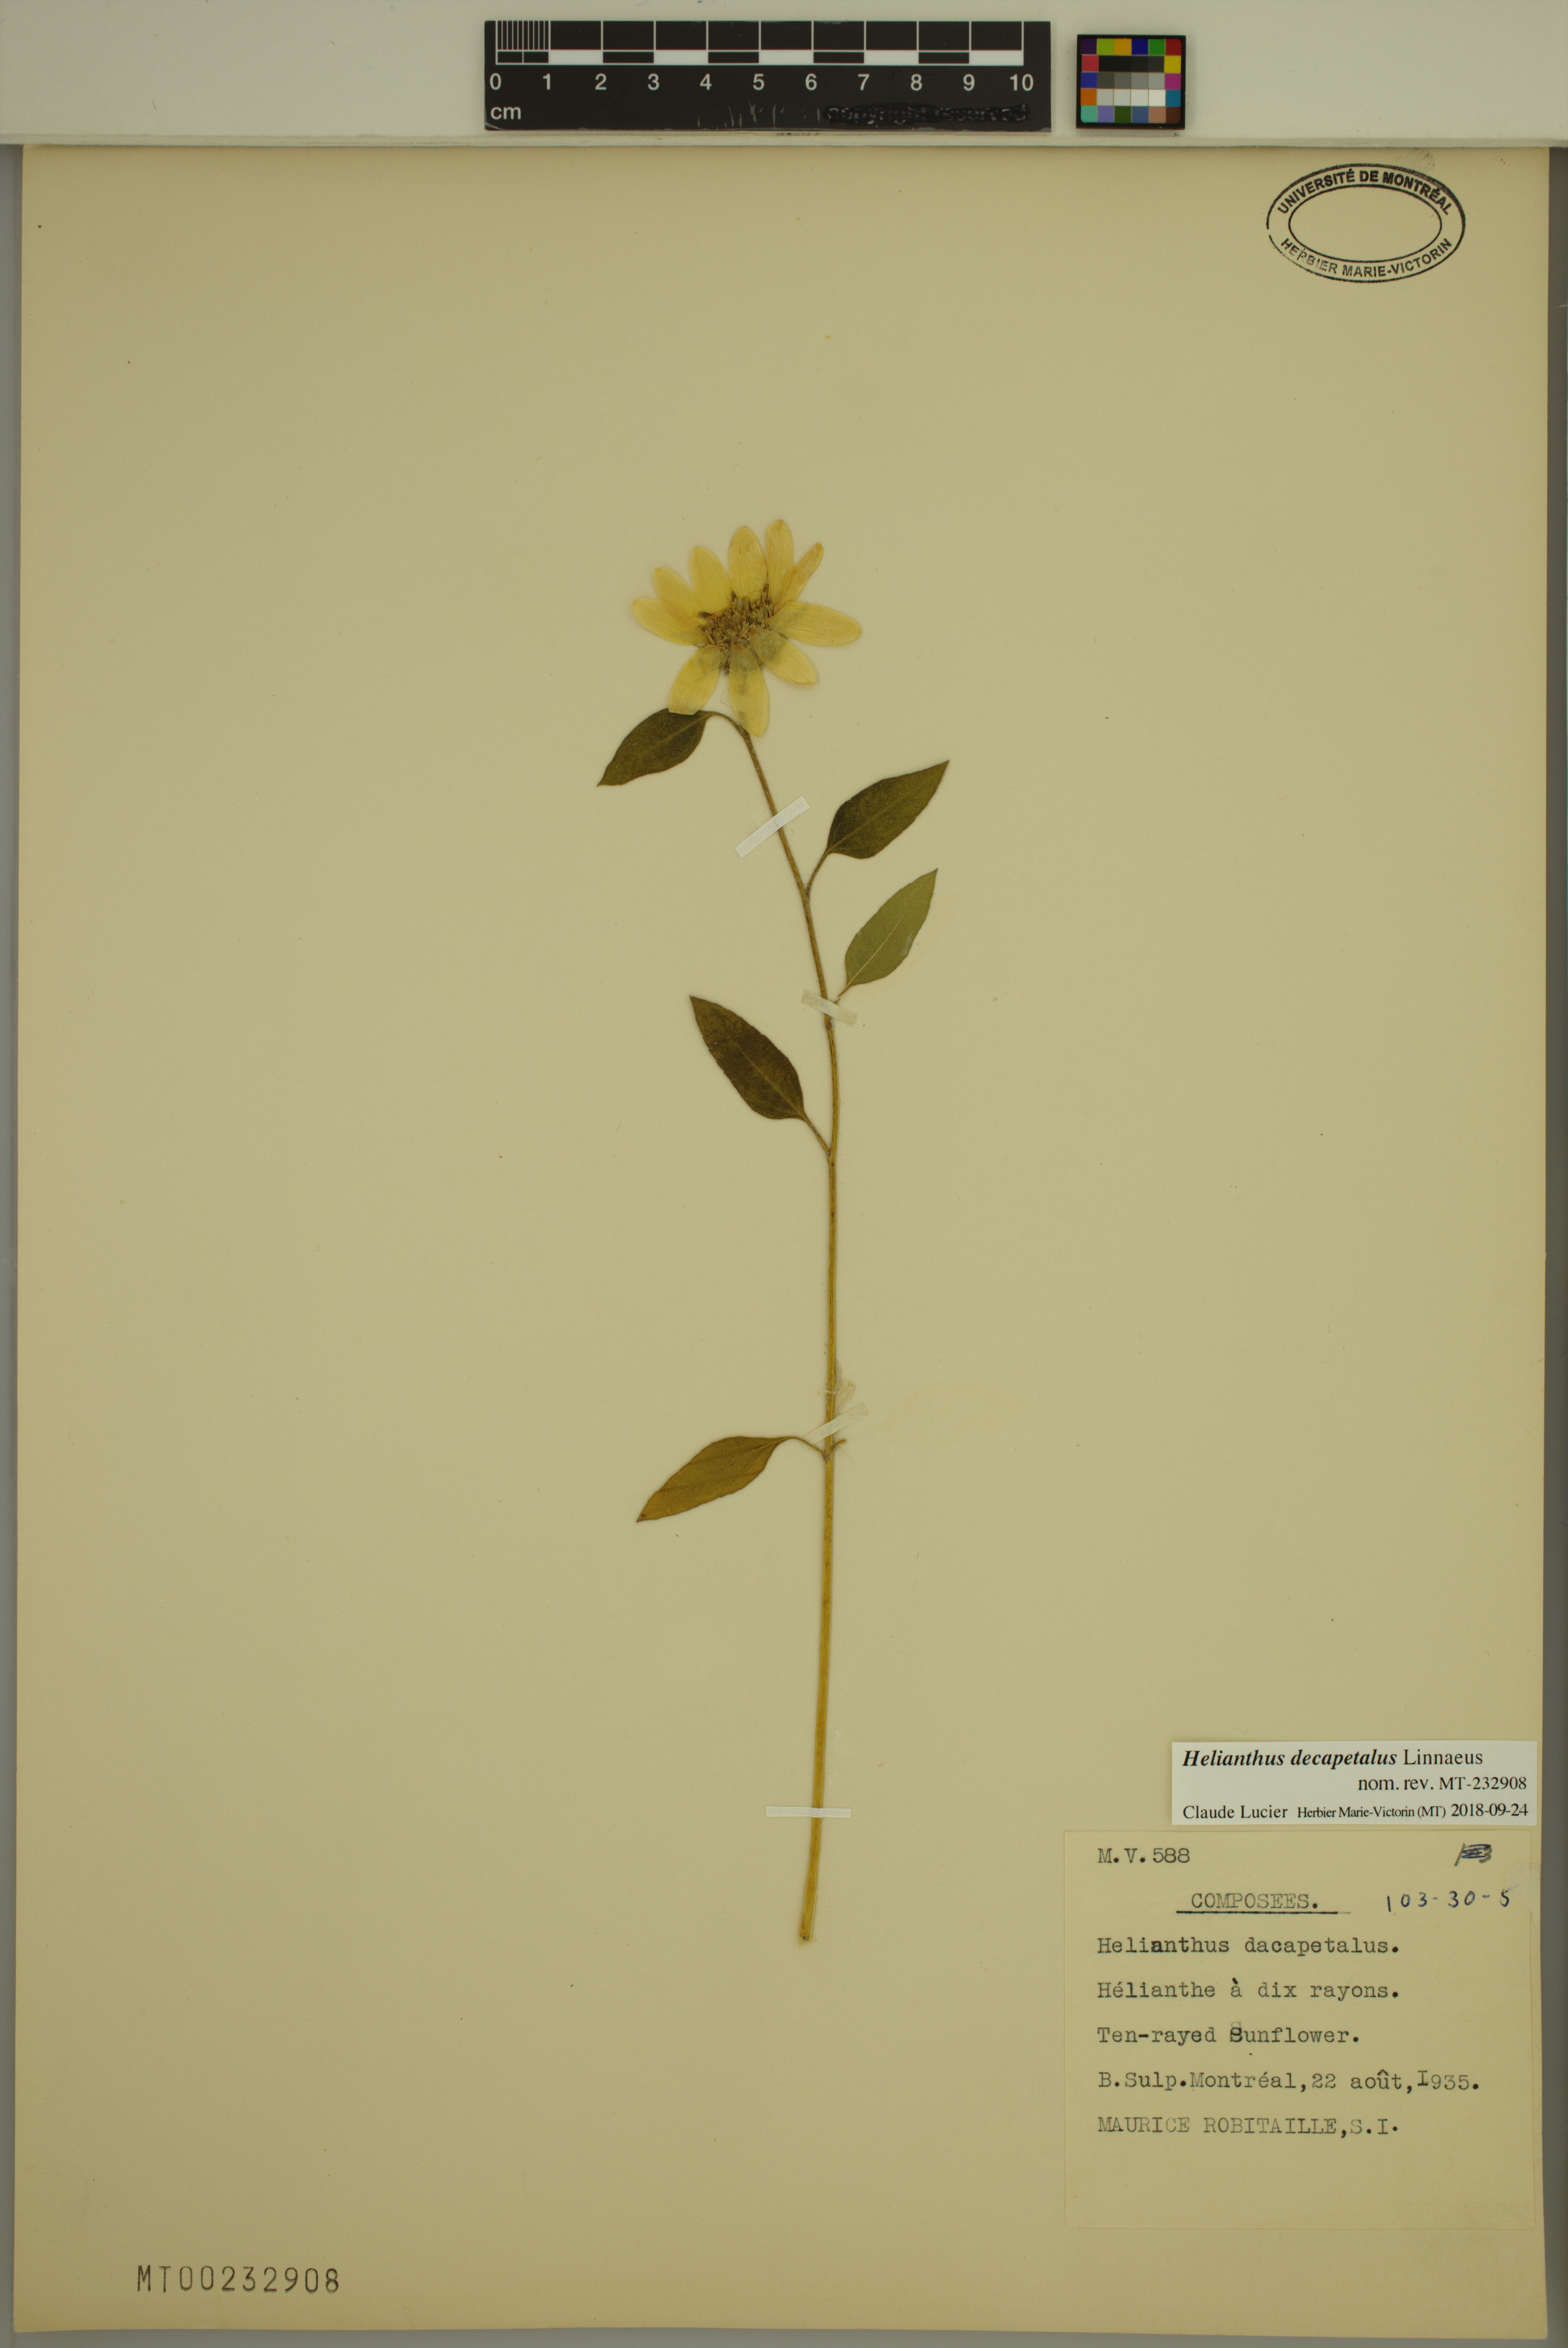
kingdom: Plantae
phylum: Tracheophyta
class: Magnoliopsida
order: Asterales
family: Asteraceae
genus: Helianthus
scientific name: Helianthus decapetalus
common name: Thin-leaved sunflower
